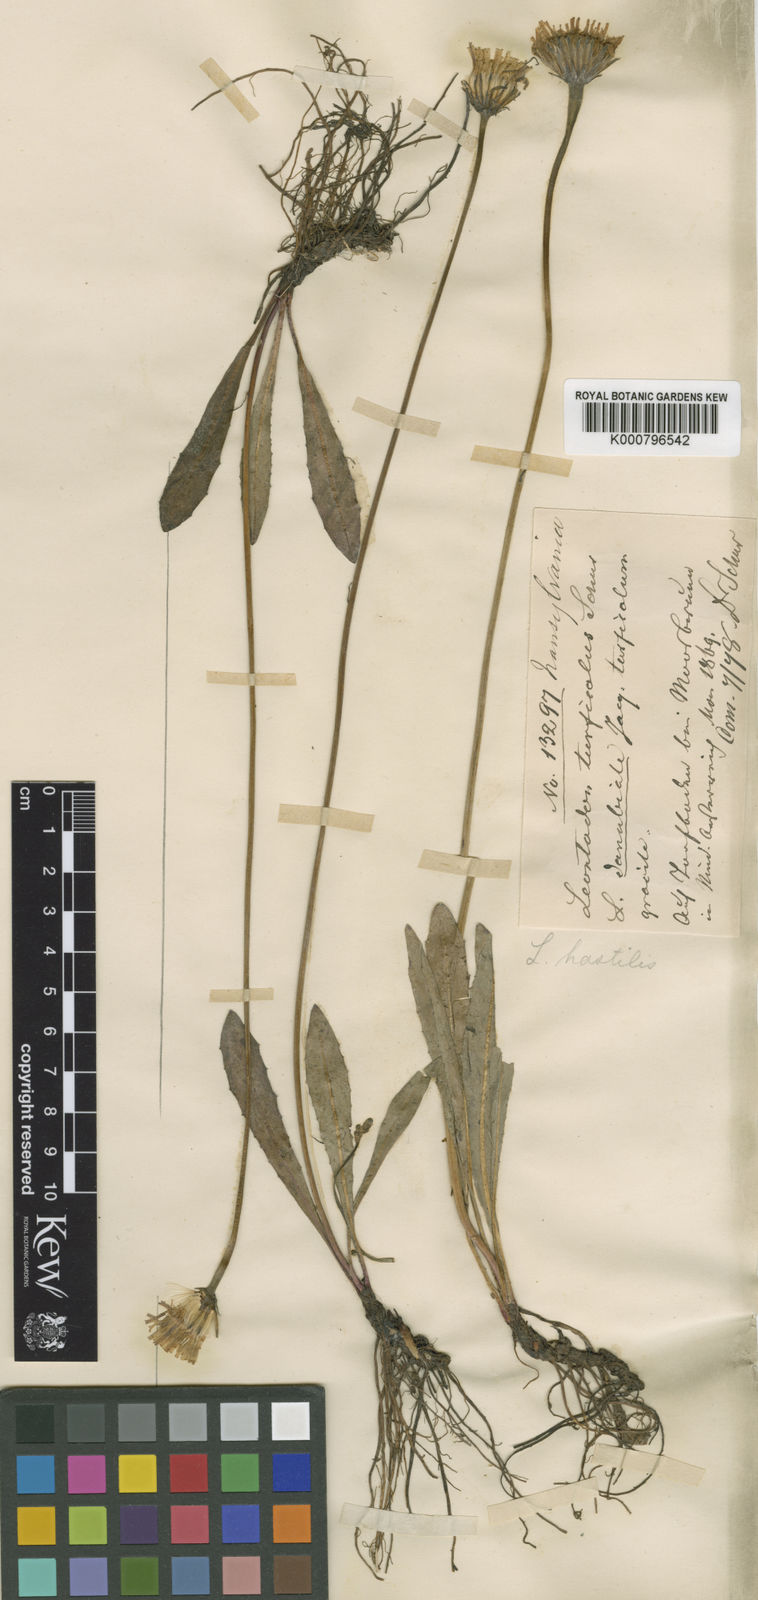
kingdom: Plantae
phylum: Tracheophyta
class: Magnoliopsida
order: Asterales
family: Asteraceae
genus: Leontodon
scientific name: Leontodon hispidus
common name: Rough hawkbit
